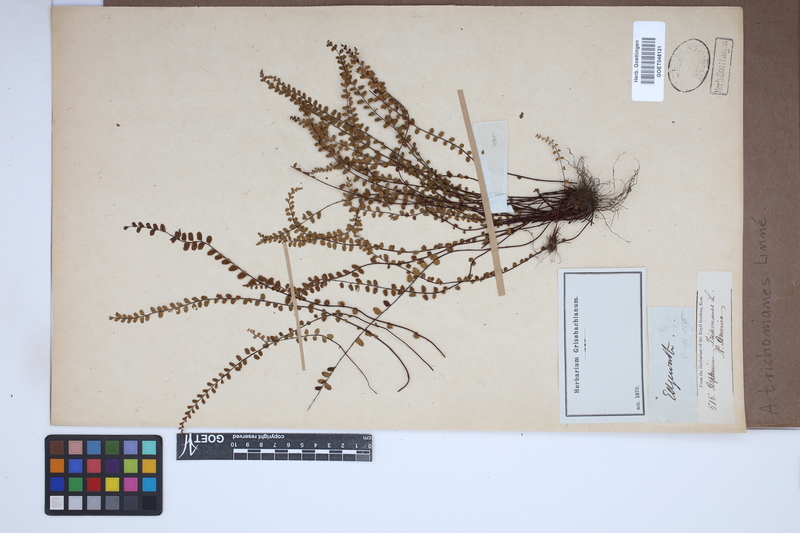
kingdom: Plantae
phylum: Tracheophyta
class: Polypodiopsida
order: Polypodiales
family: Aspleniaceae
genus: Asplenium
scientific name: Asplenium trichomanes
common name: Maidenhair spleenwort
